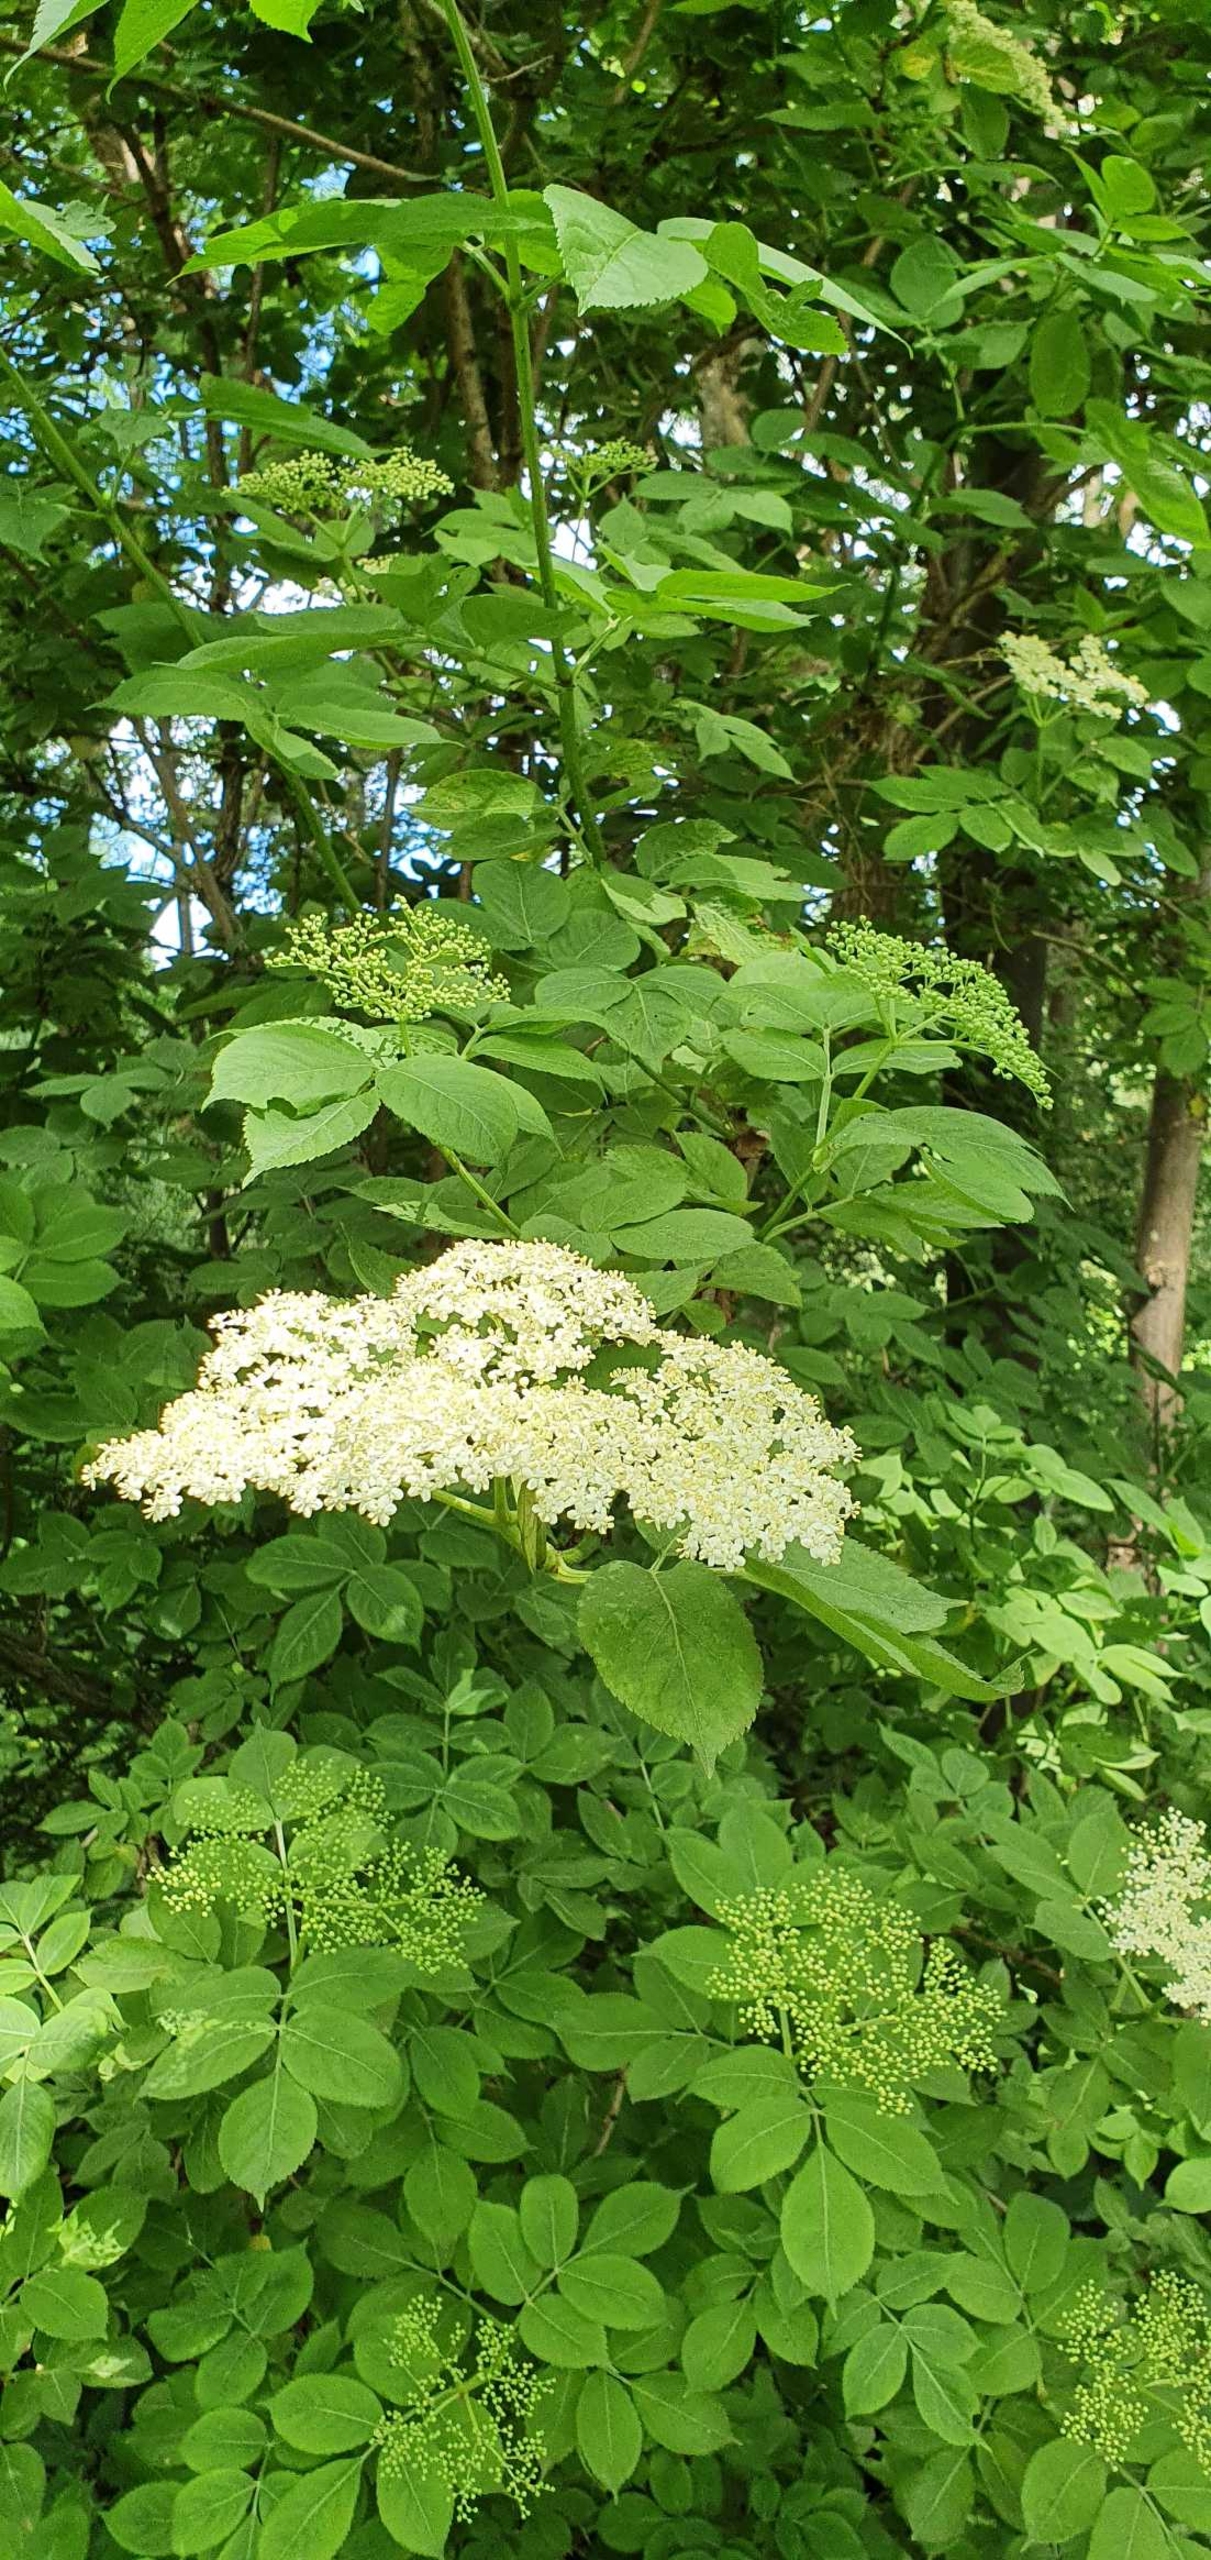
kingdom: Plantae
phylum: Tracheophyta
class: Magnoliopsida
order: Dipsacales
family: Viburnaceae
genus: Sambucus
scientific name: Sambucus nigra
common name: Almindelig hyld
